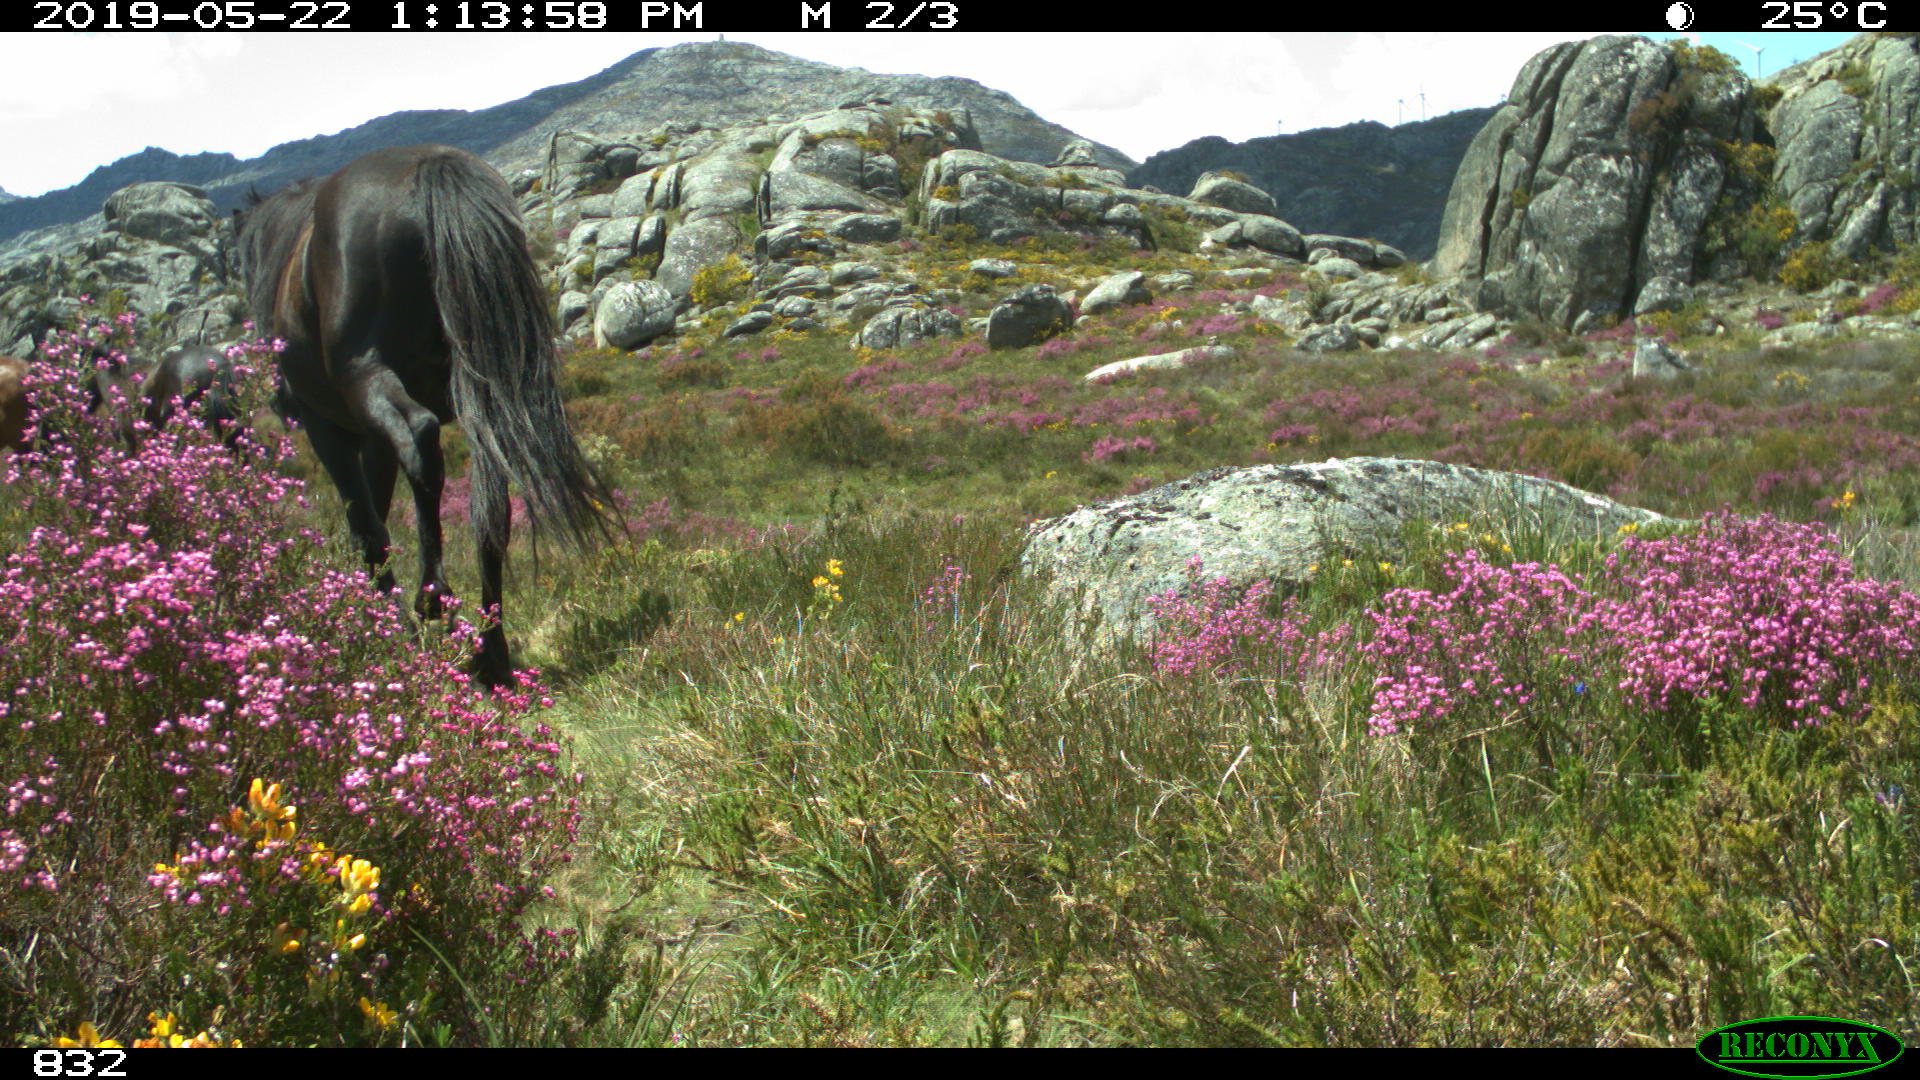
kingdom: Animalia
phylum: Chordata
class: Mammalia
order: Perissodactyla
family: Equidae
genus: Equus
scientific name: Equus caballus
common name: Horse
